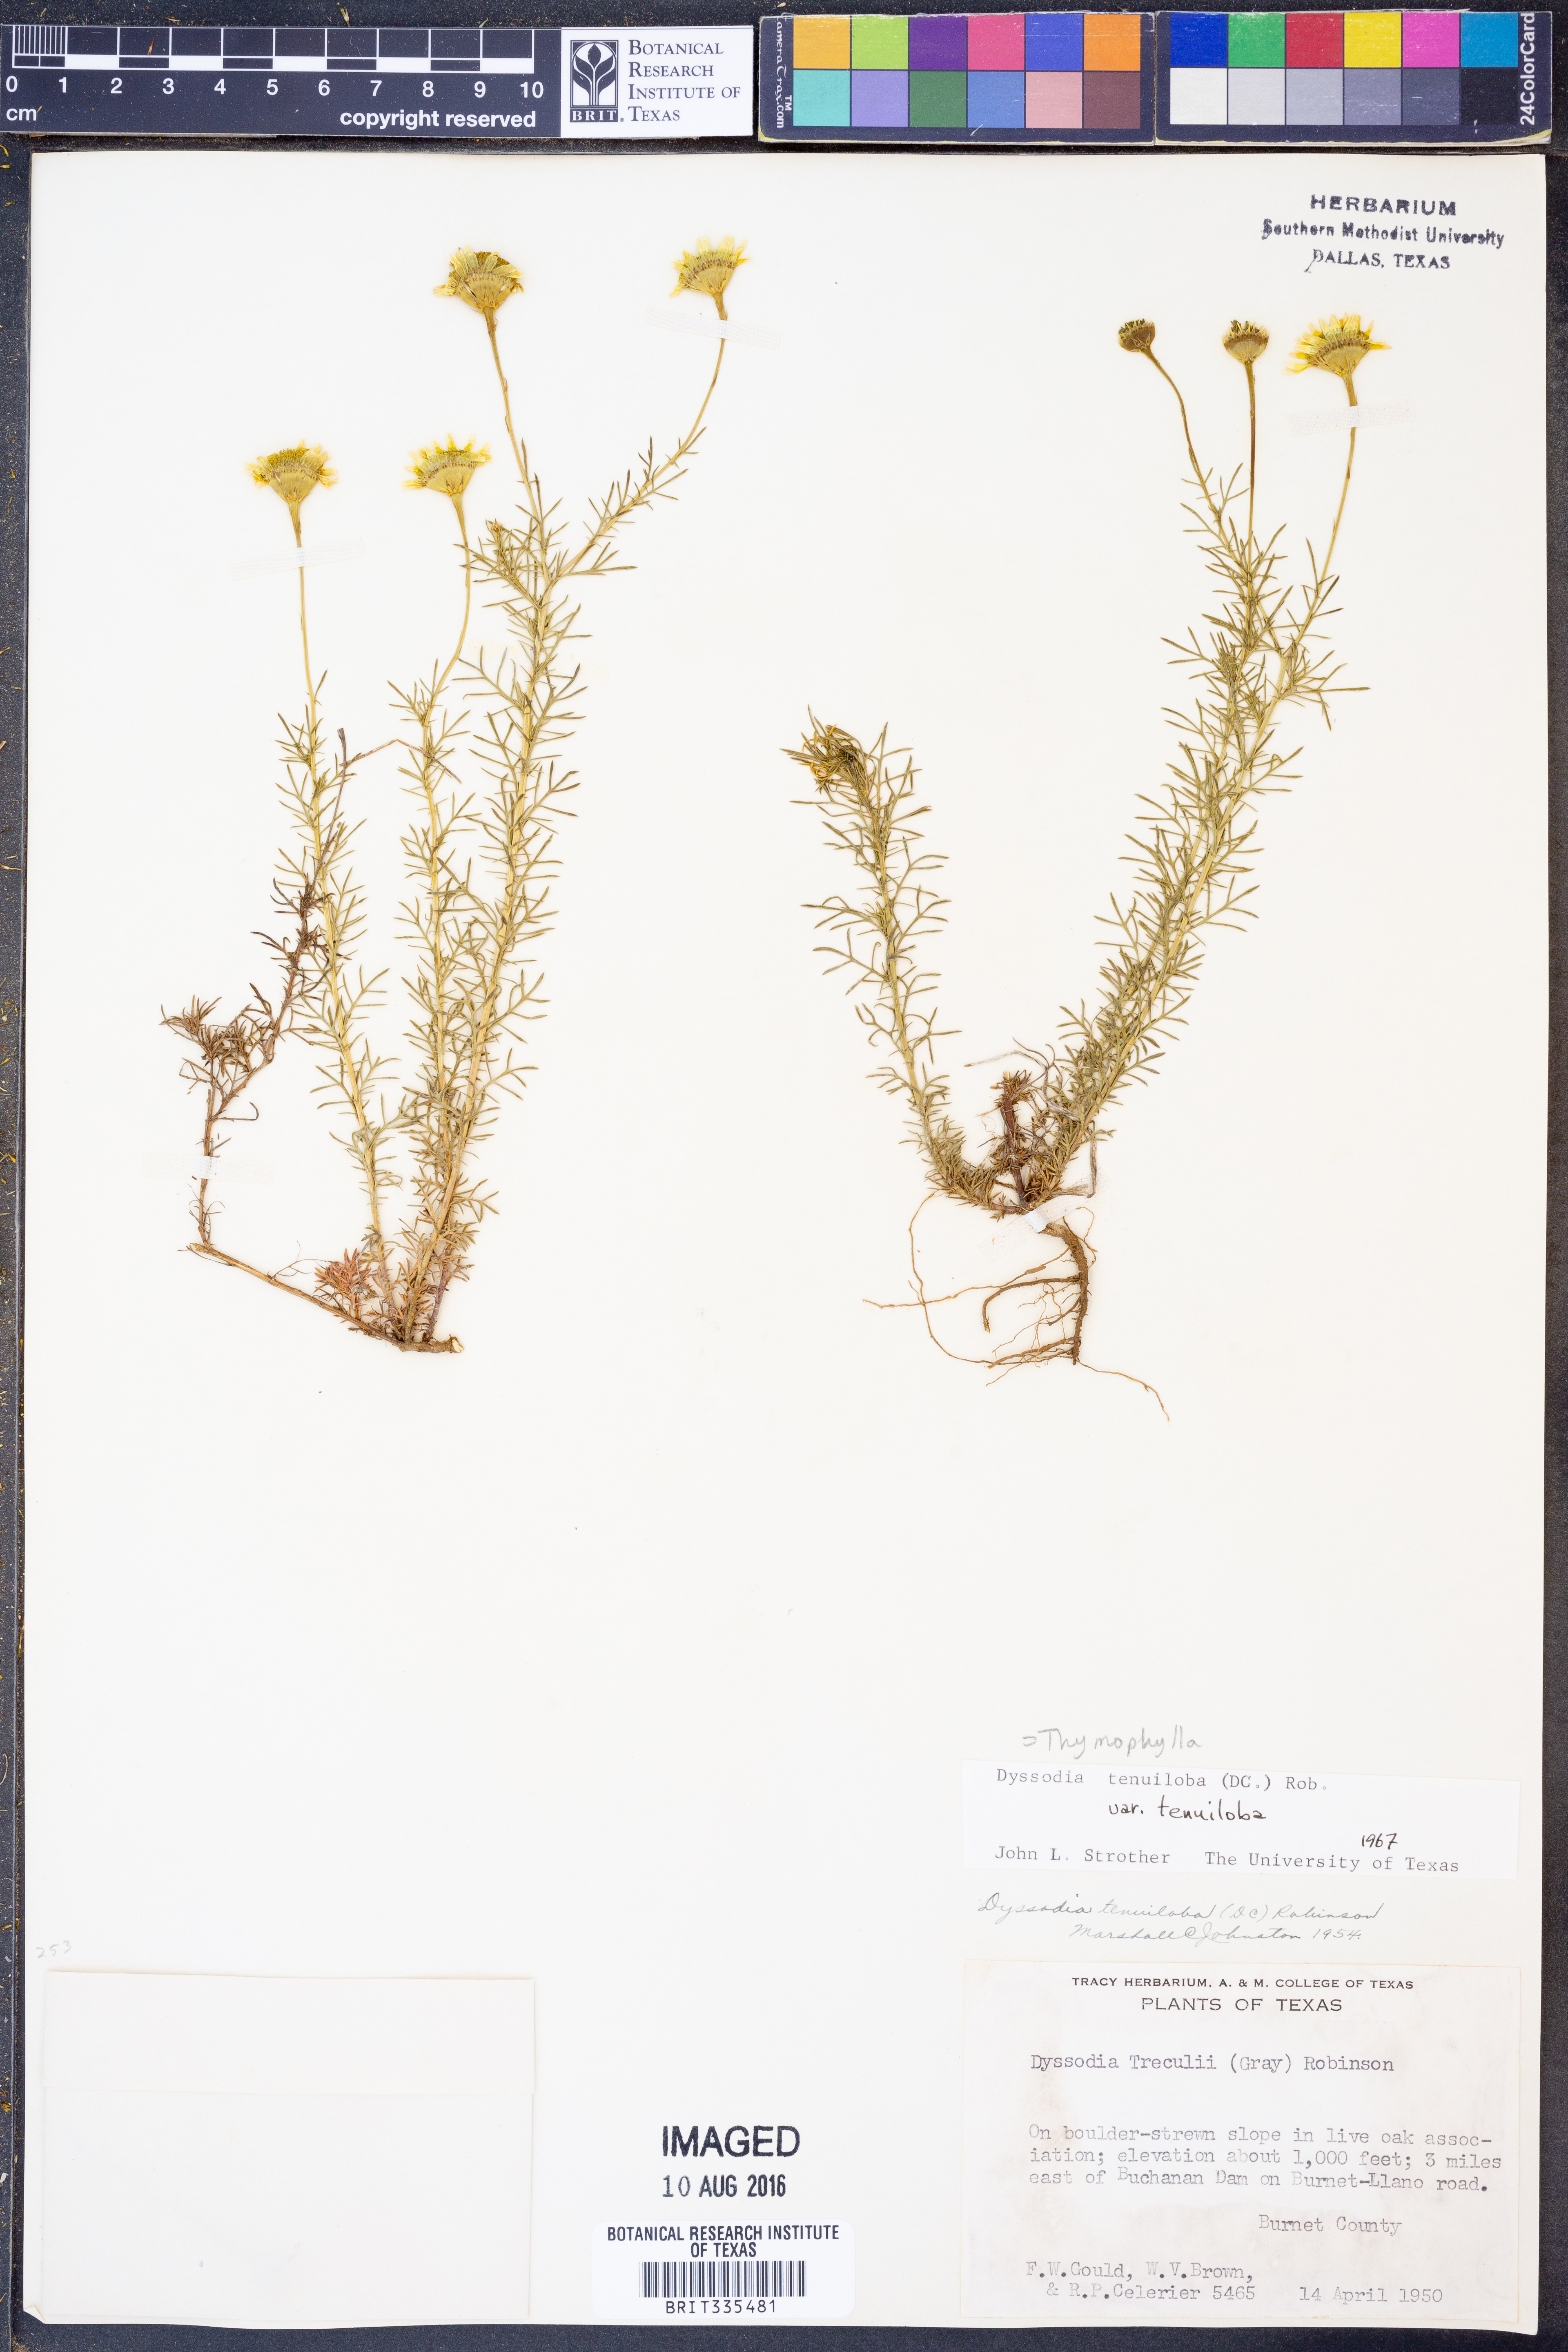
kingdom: Plantae
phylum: Tracheophyta
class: Magnoliopsida
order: Asterales
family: Asteraceae
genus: Thymophylla
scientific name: Thymophylla tenuiloba
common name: Dahlberg's daisy
